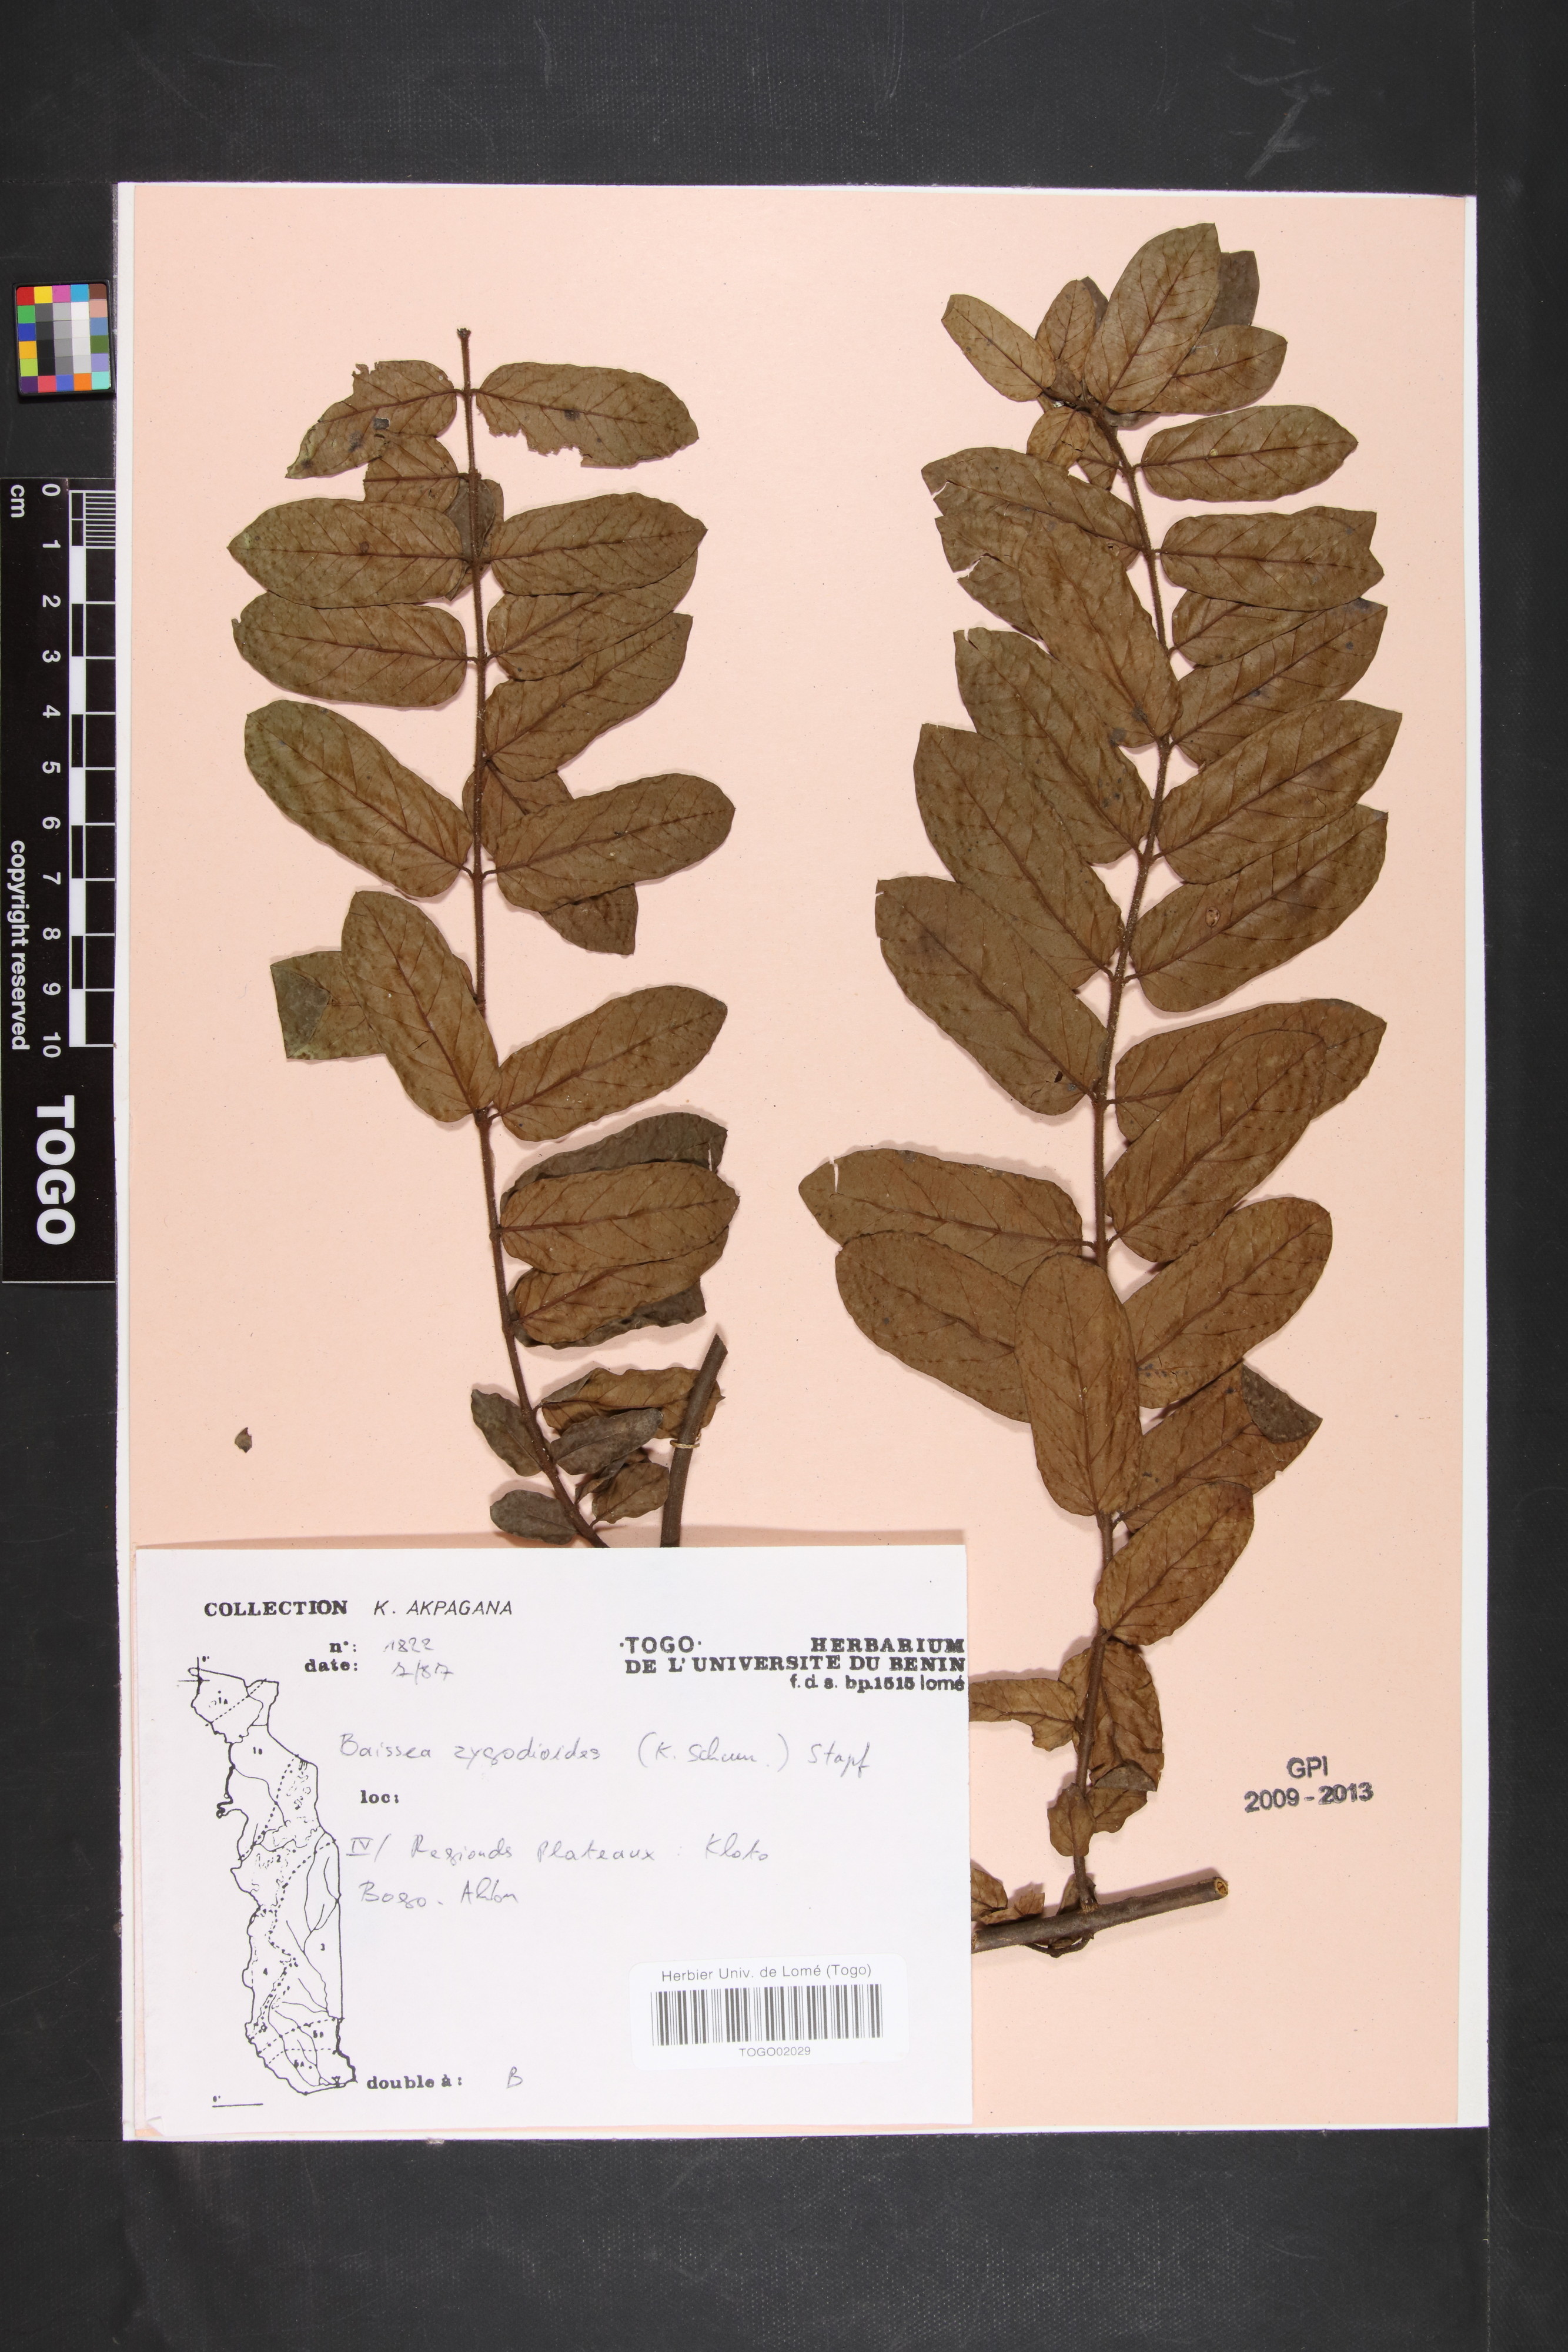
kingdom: Plantae
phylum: Tracheophyta
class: Magnoliopsida
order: Gentianales
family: Apocynaceae
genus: Baissea
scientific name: Baissea zygodioides
